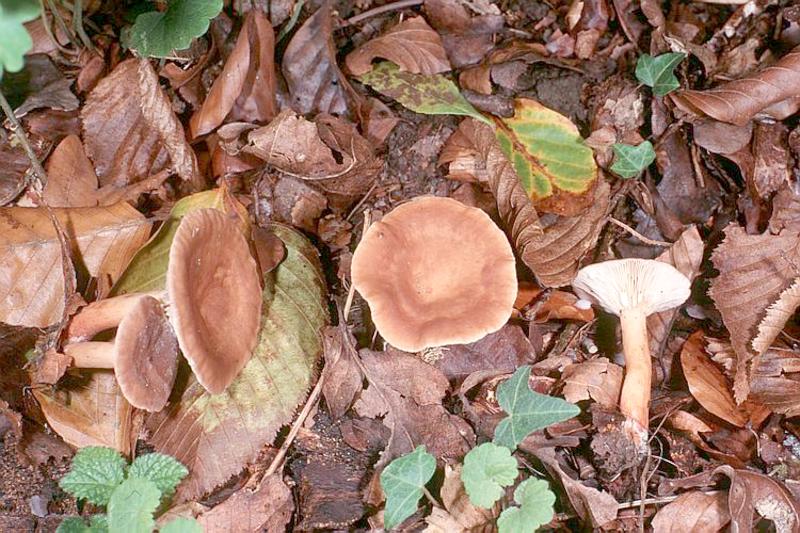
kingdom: Fungi
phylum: Basidiomycota
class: Agaricomycetes
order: Russulales
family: Russulaceae
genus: Lactarius
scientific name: Lactarius subdulcis
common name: Mild milkcap
